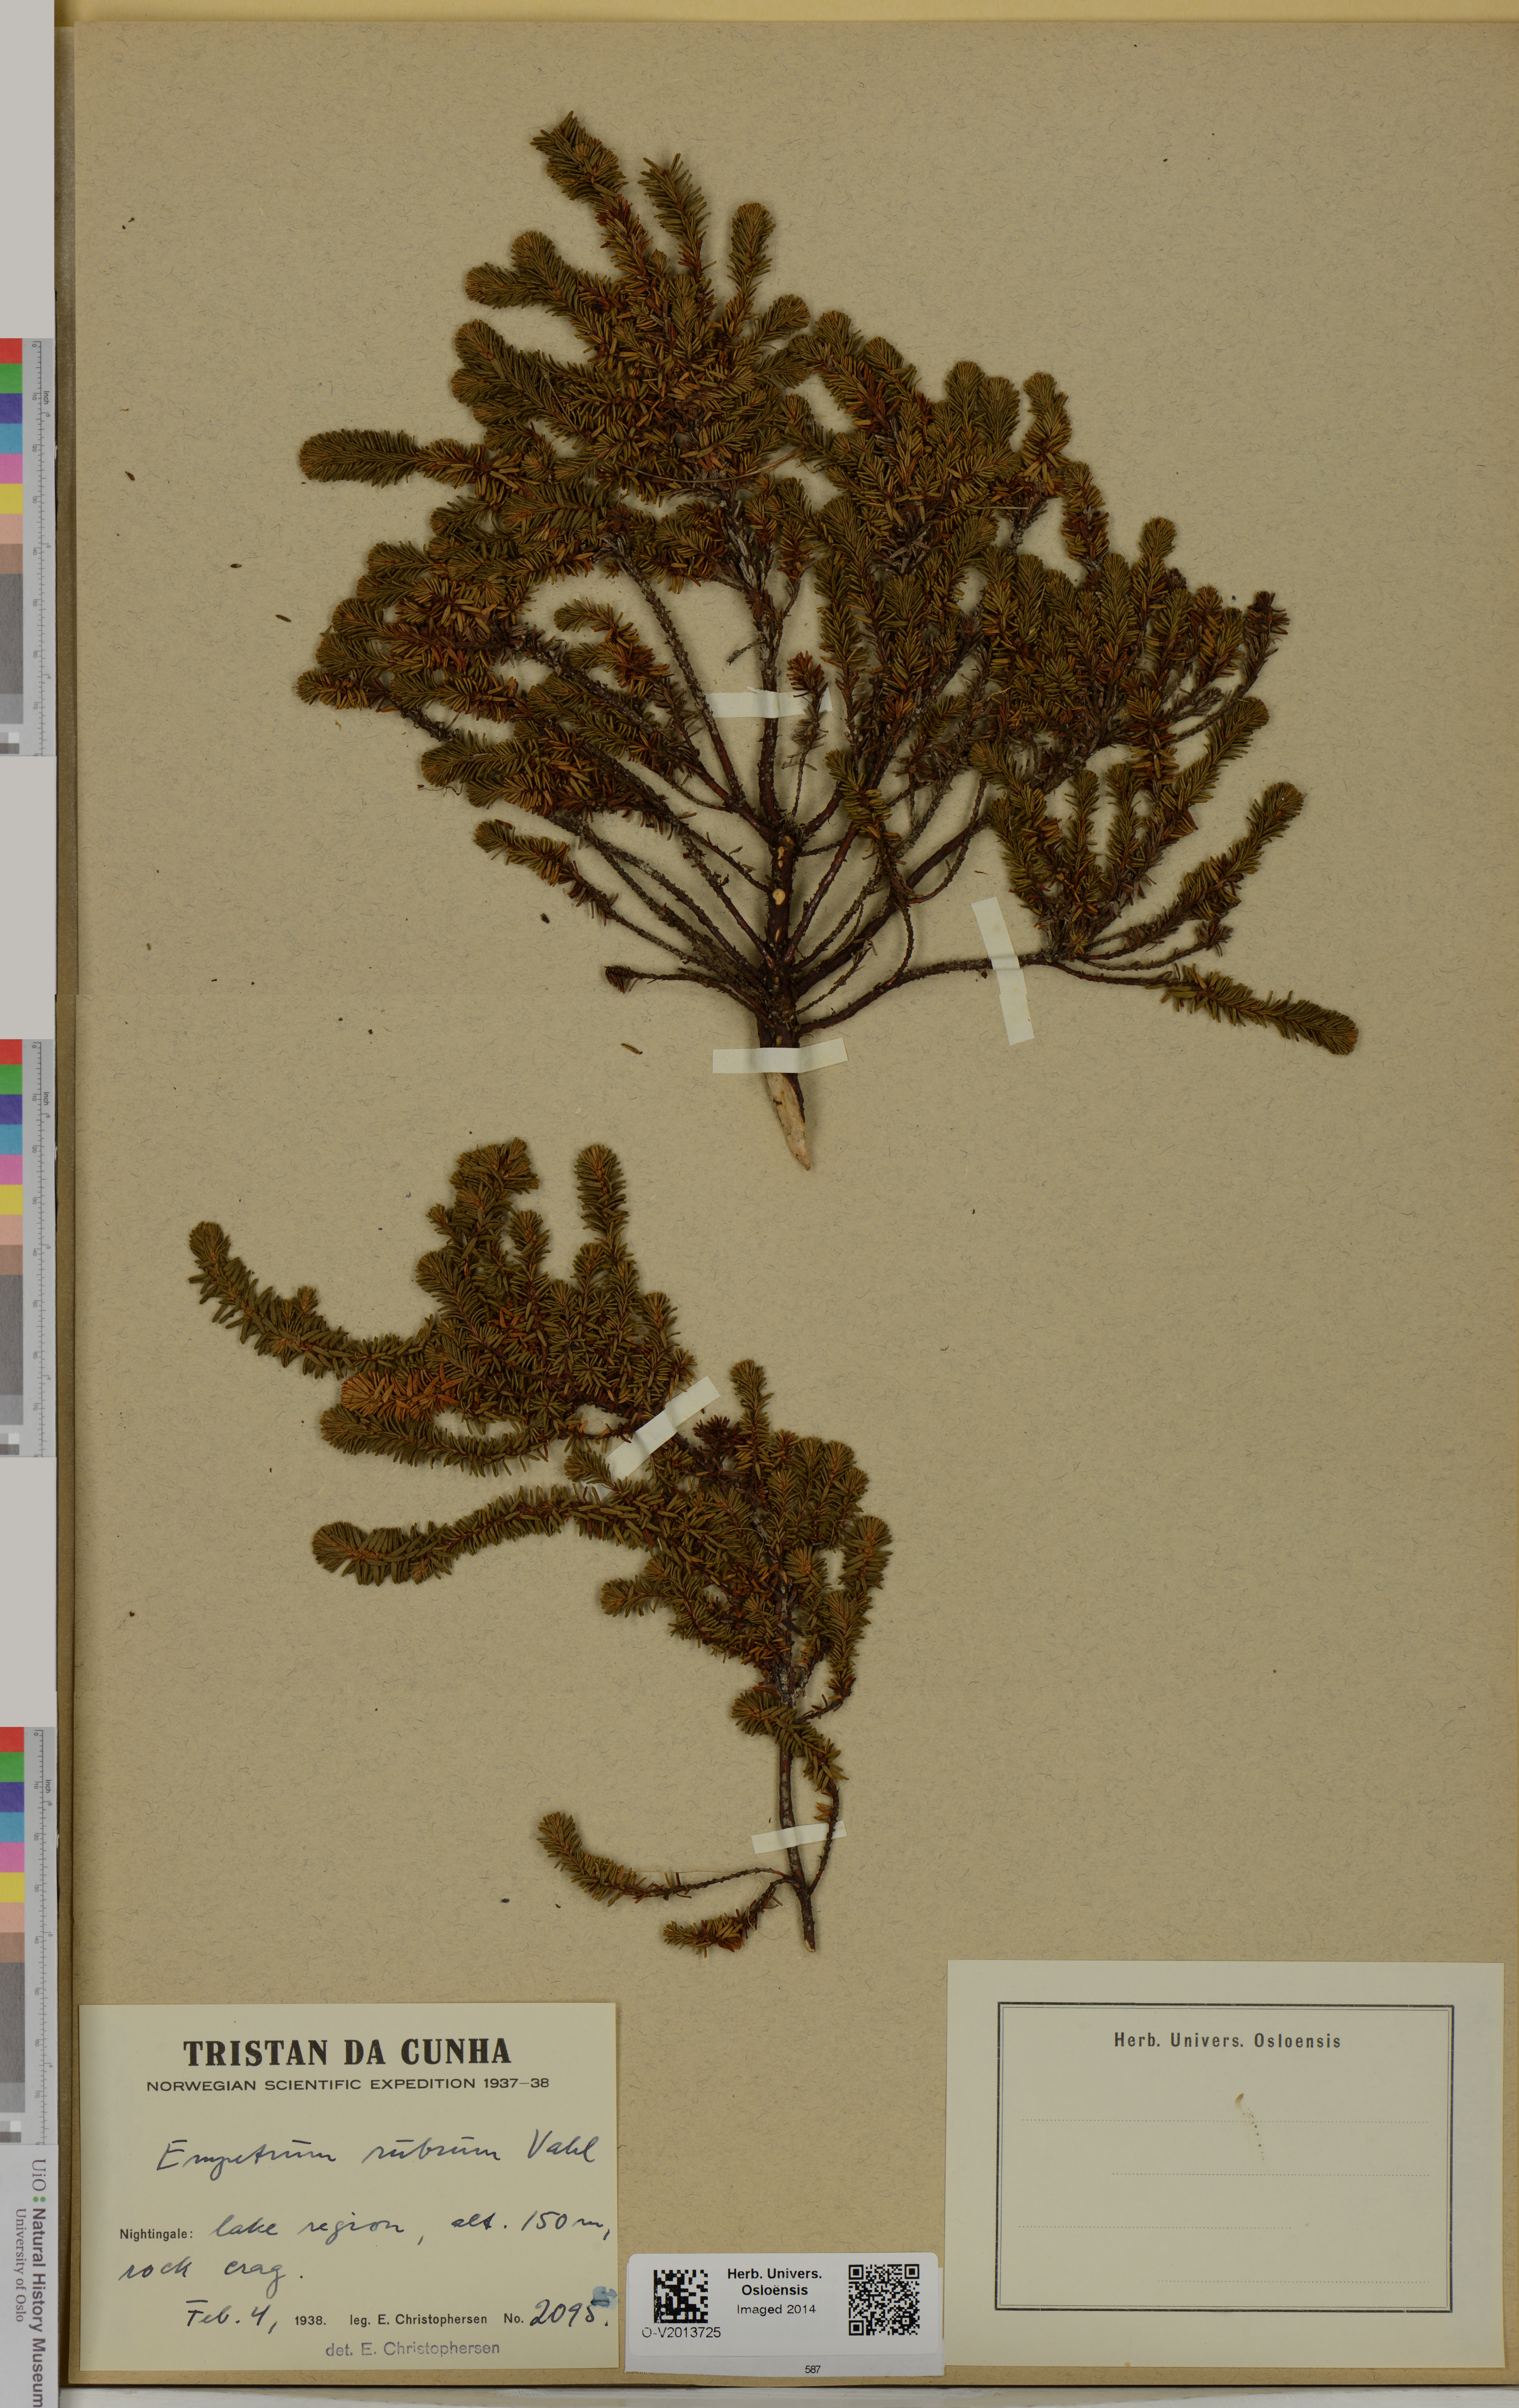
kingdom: Plantae
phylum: Tracheophyta
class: Magnoliopsida
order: Ericales
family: Ericaceae
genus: Empetrum
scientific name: Empetrum rubrum
